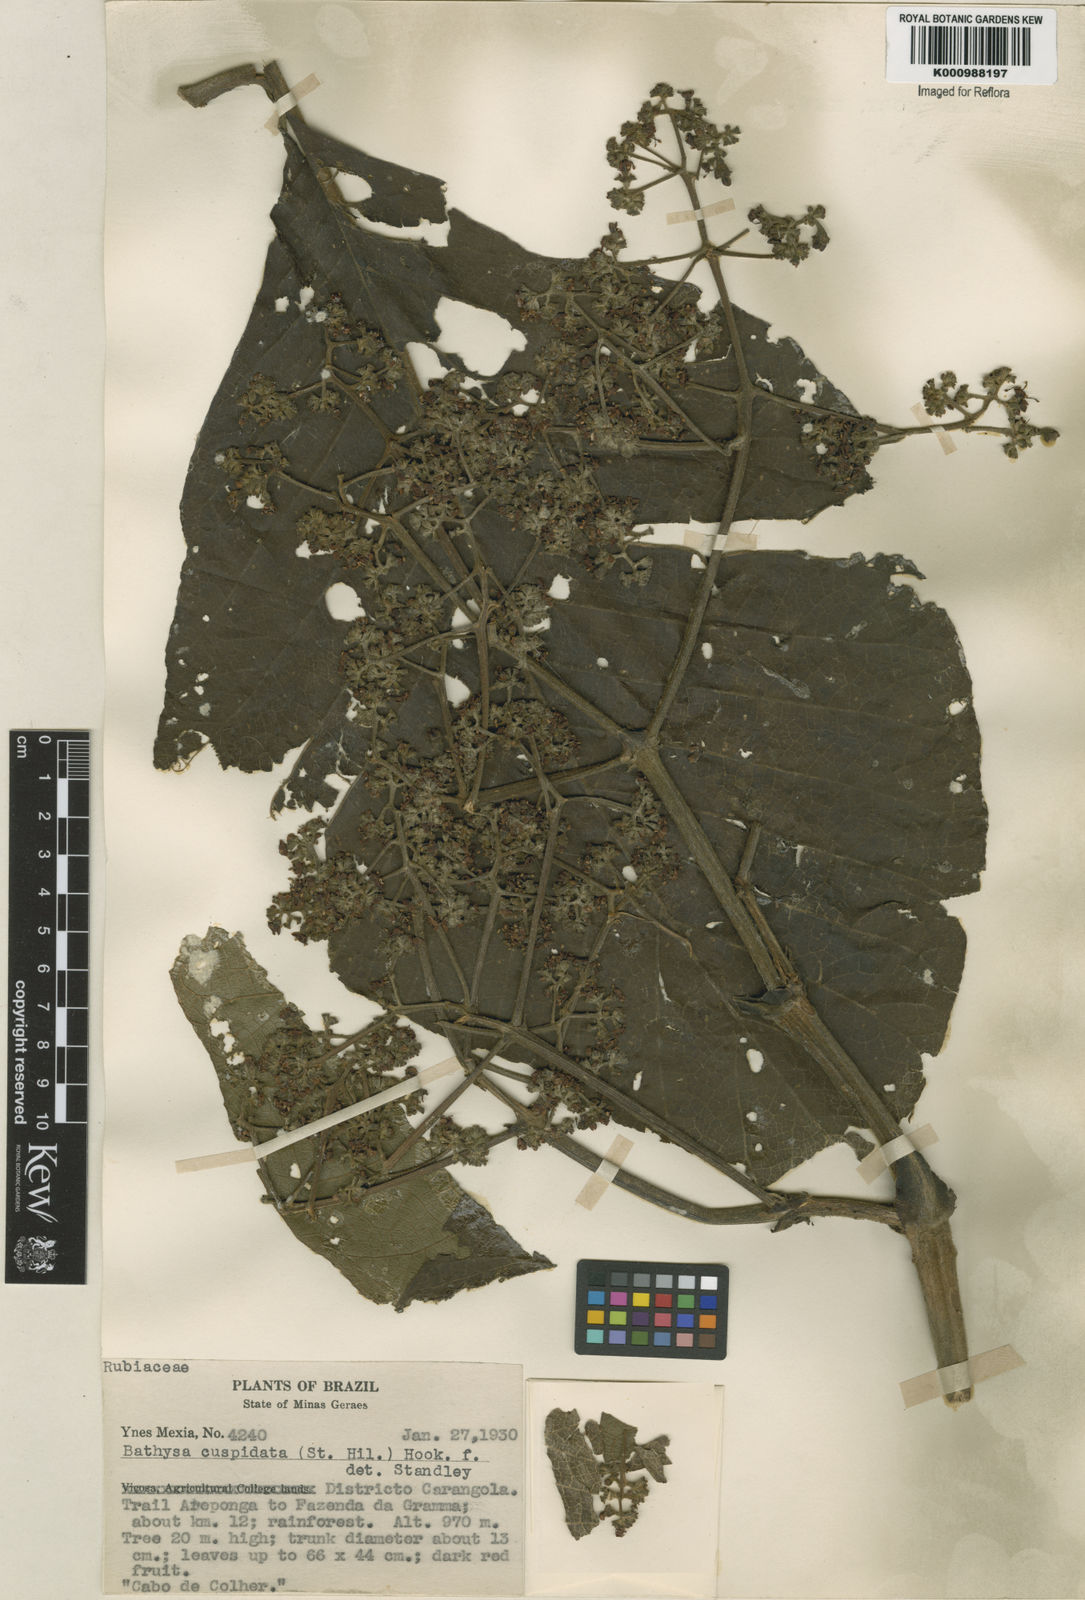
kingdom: Plantae
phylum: Tracheophyta
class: Magnoliopsida
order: Gentianales
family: Rubiaceae
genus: Schizocalyx
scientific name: Schizocalyx cuspidatus
